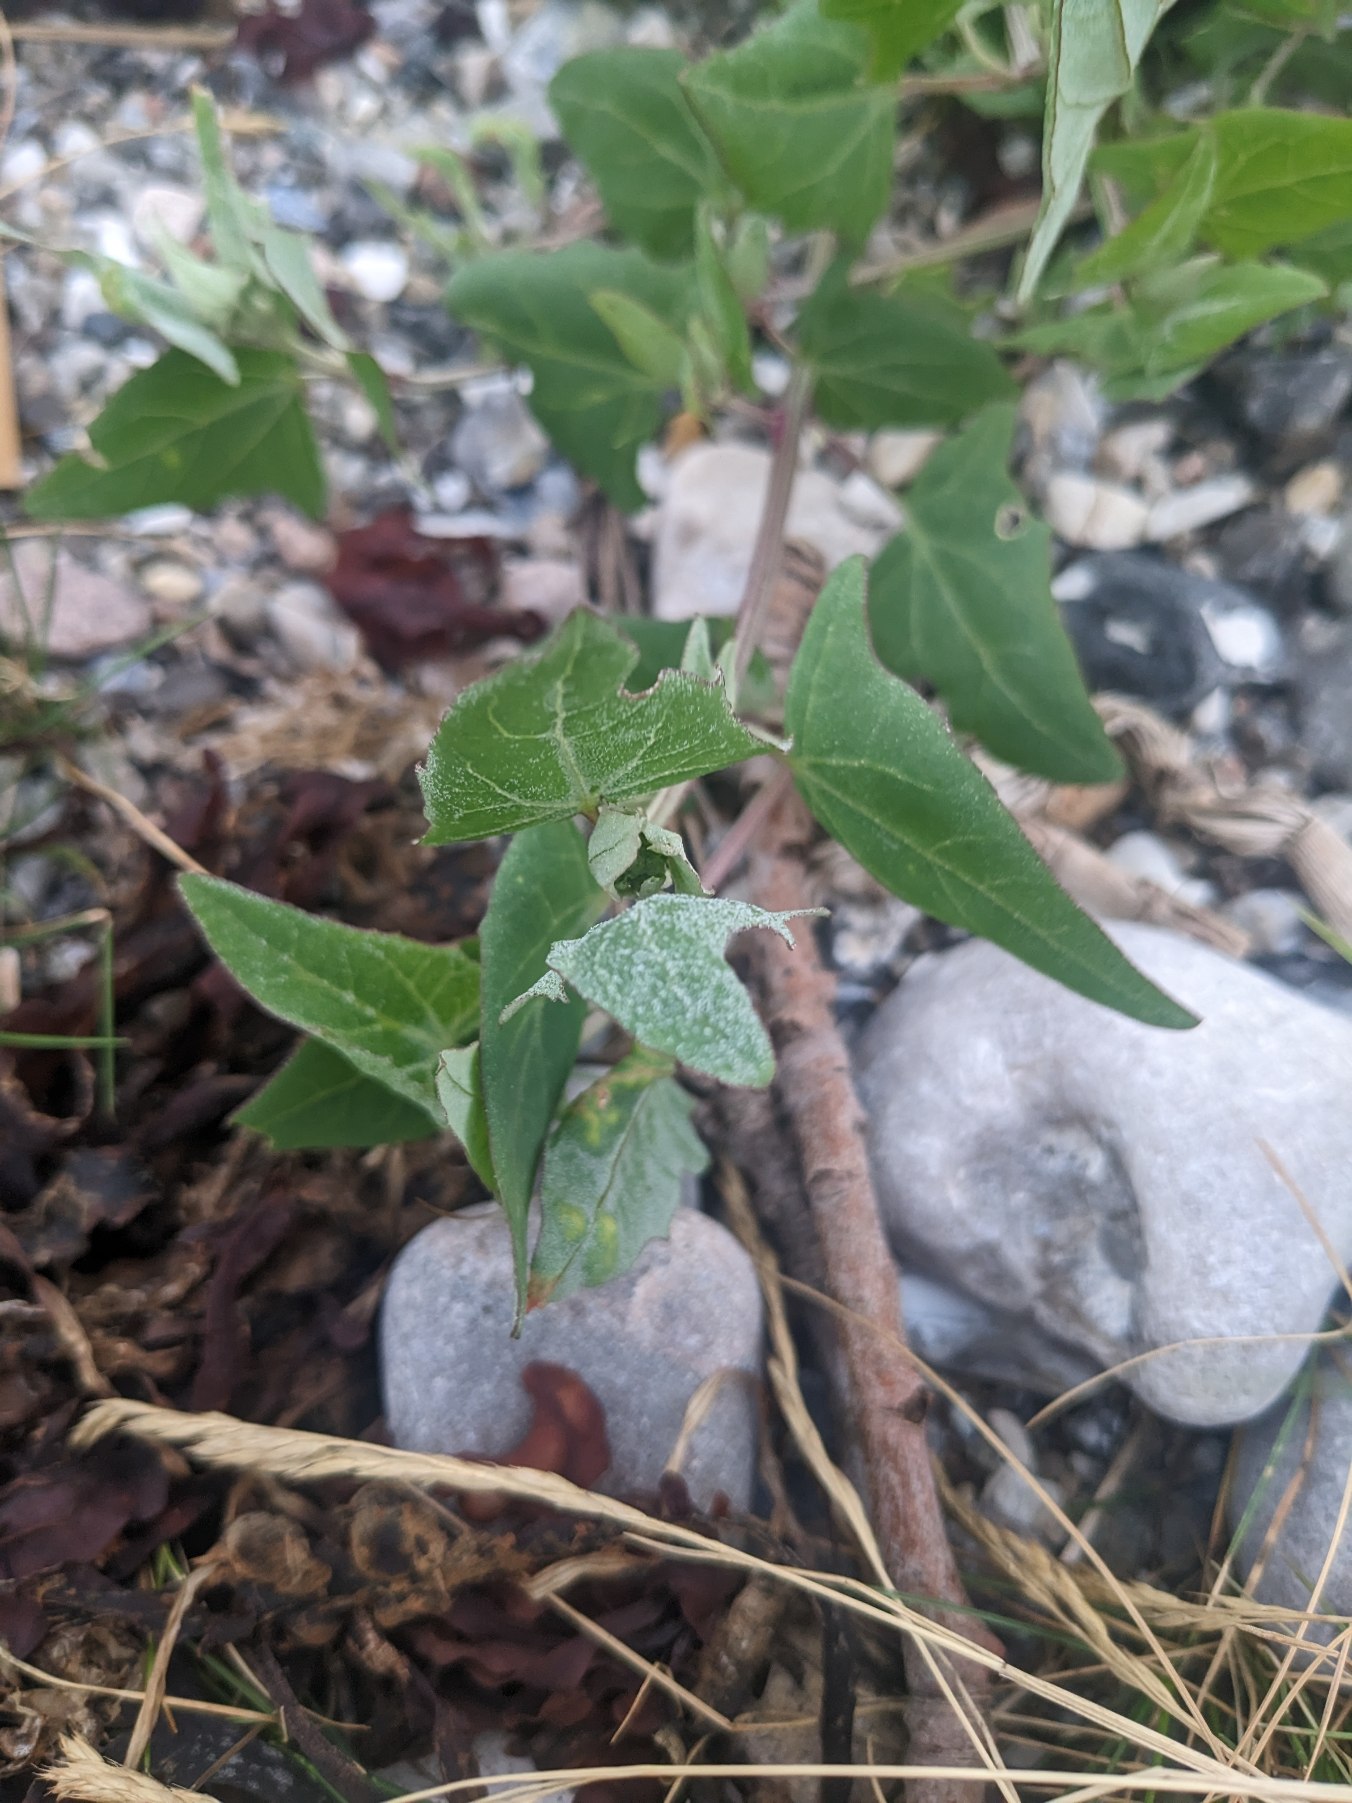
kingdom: Plantae
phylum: Tracheophyta
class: Magnoliopsida
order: Caryophyllales
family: Amaranthaceae
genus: Atriplex
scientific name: Atriplex prostrata
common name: Spyd-mælde
